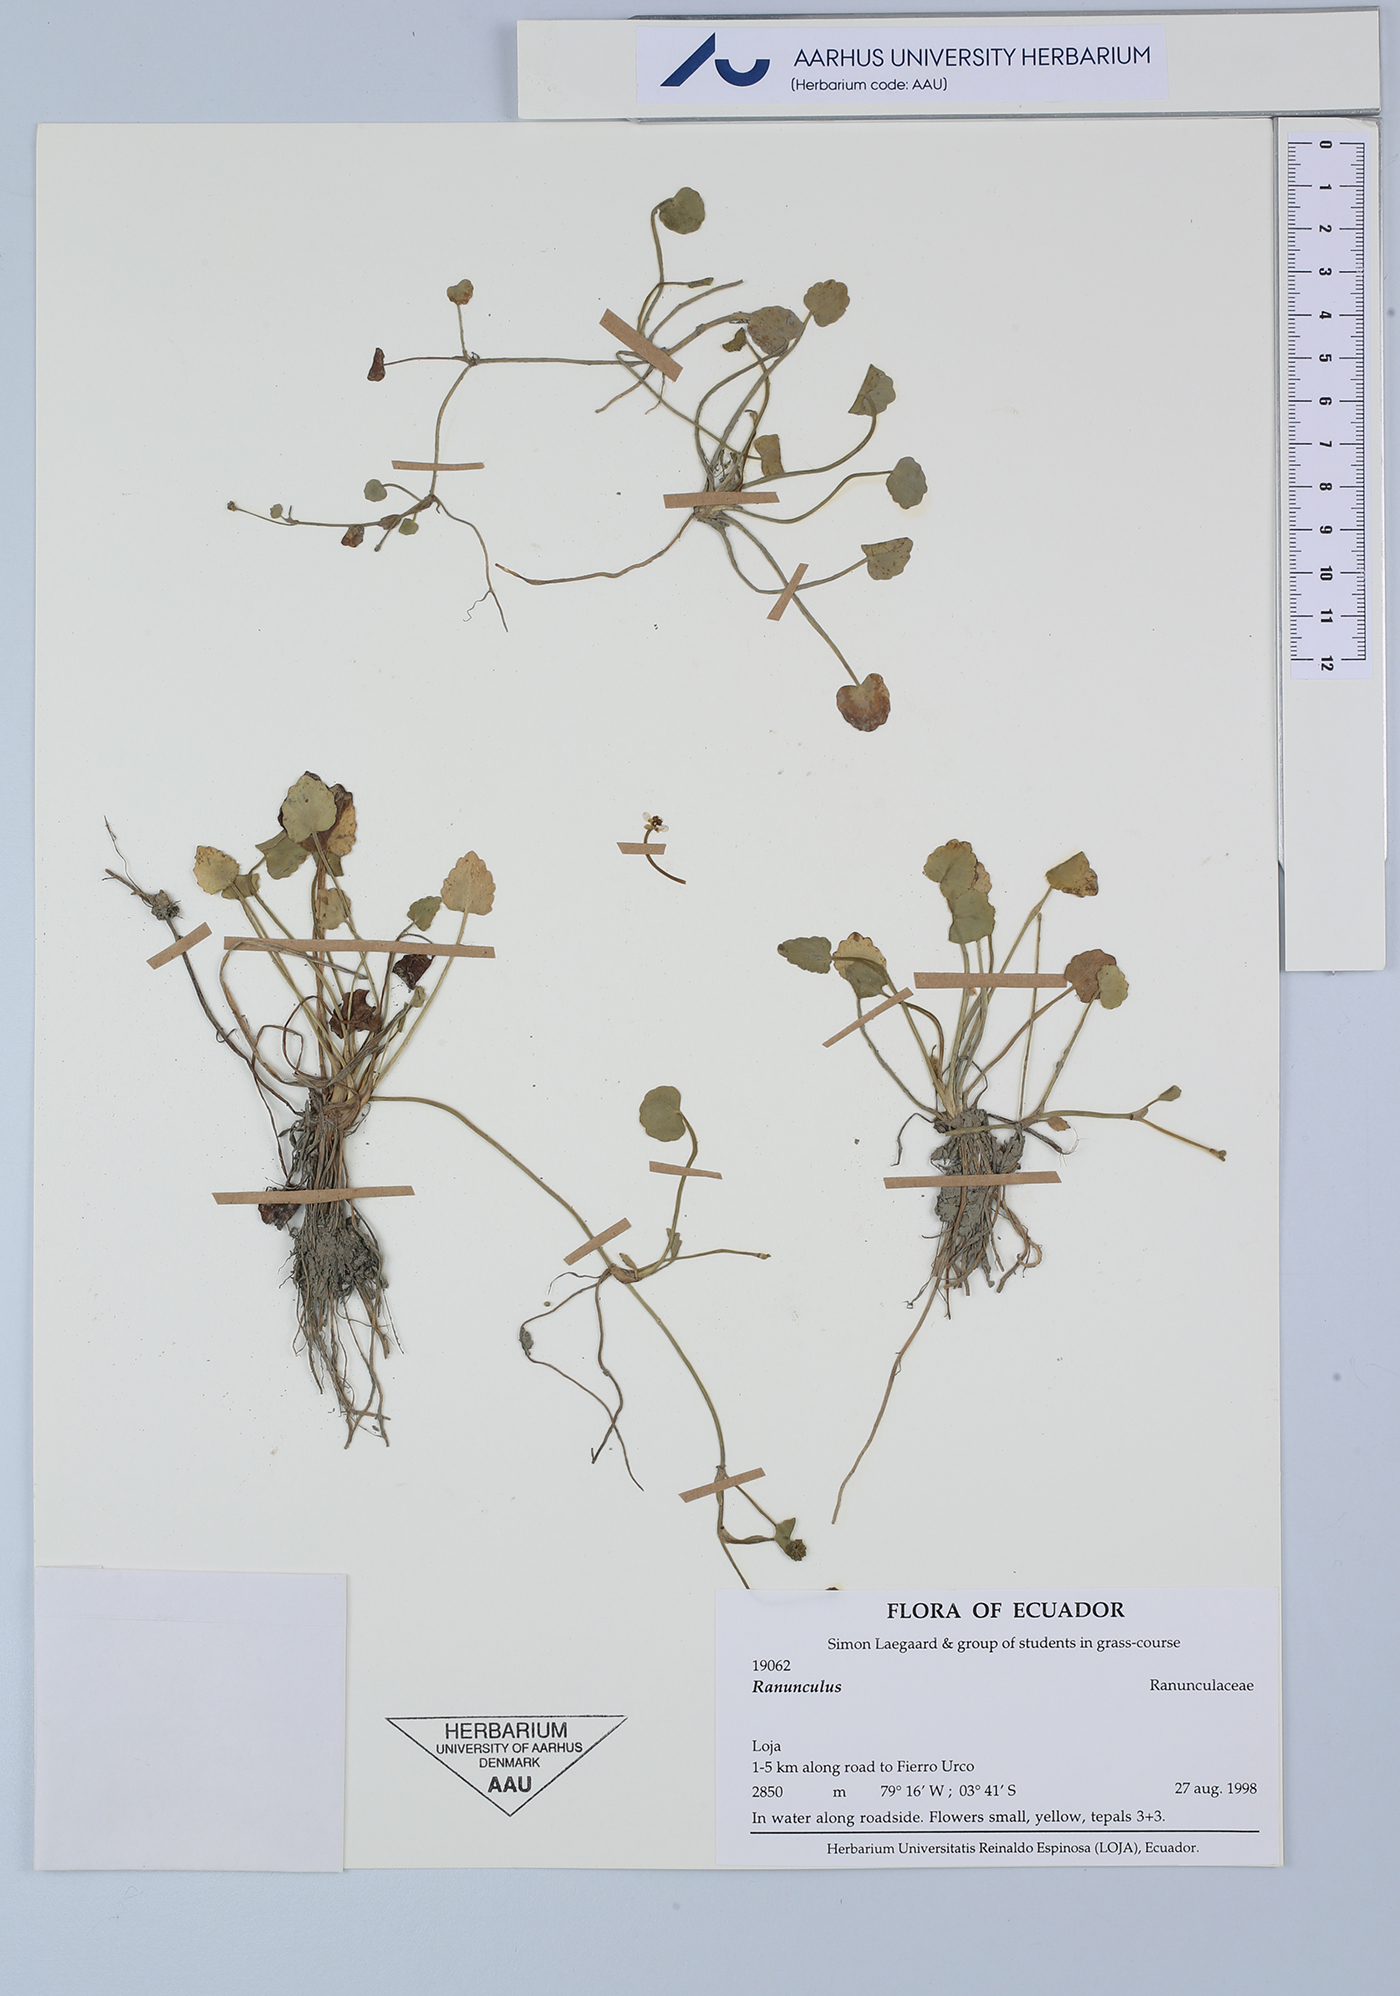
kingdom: Plantae
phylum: Tracheophyta
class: Magnoliopsida
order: Ranunculales
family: Ranunculaceae
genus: Ranunculus
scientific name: Ranunculus
